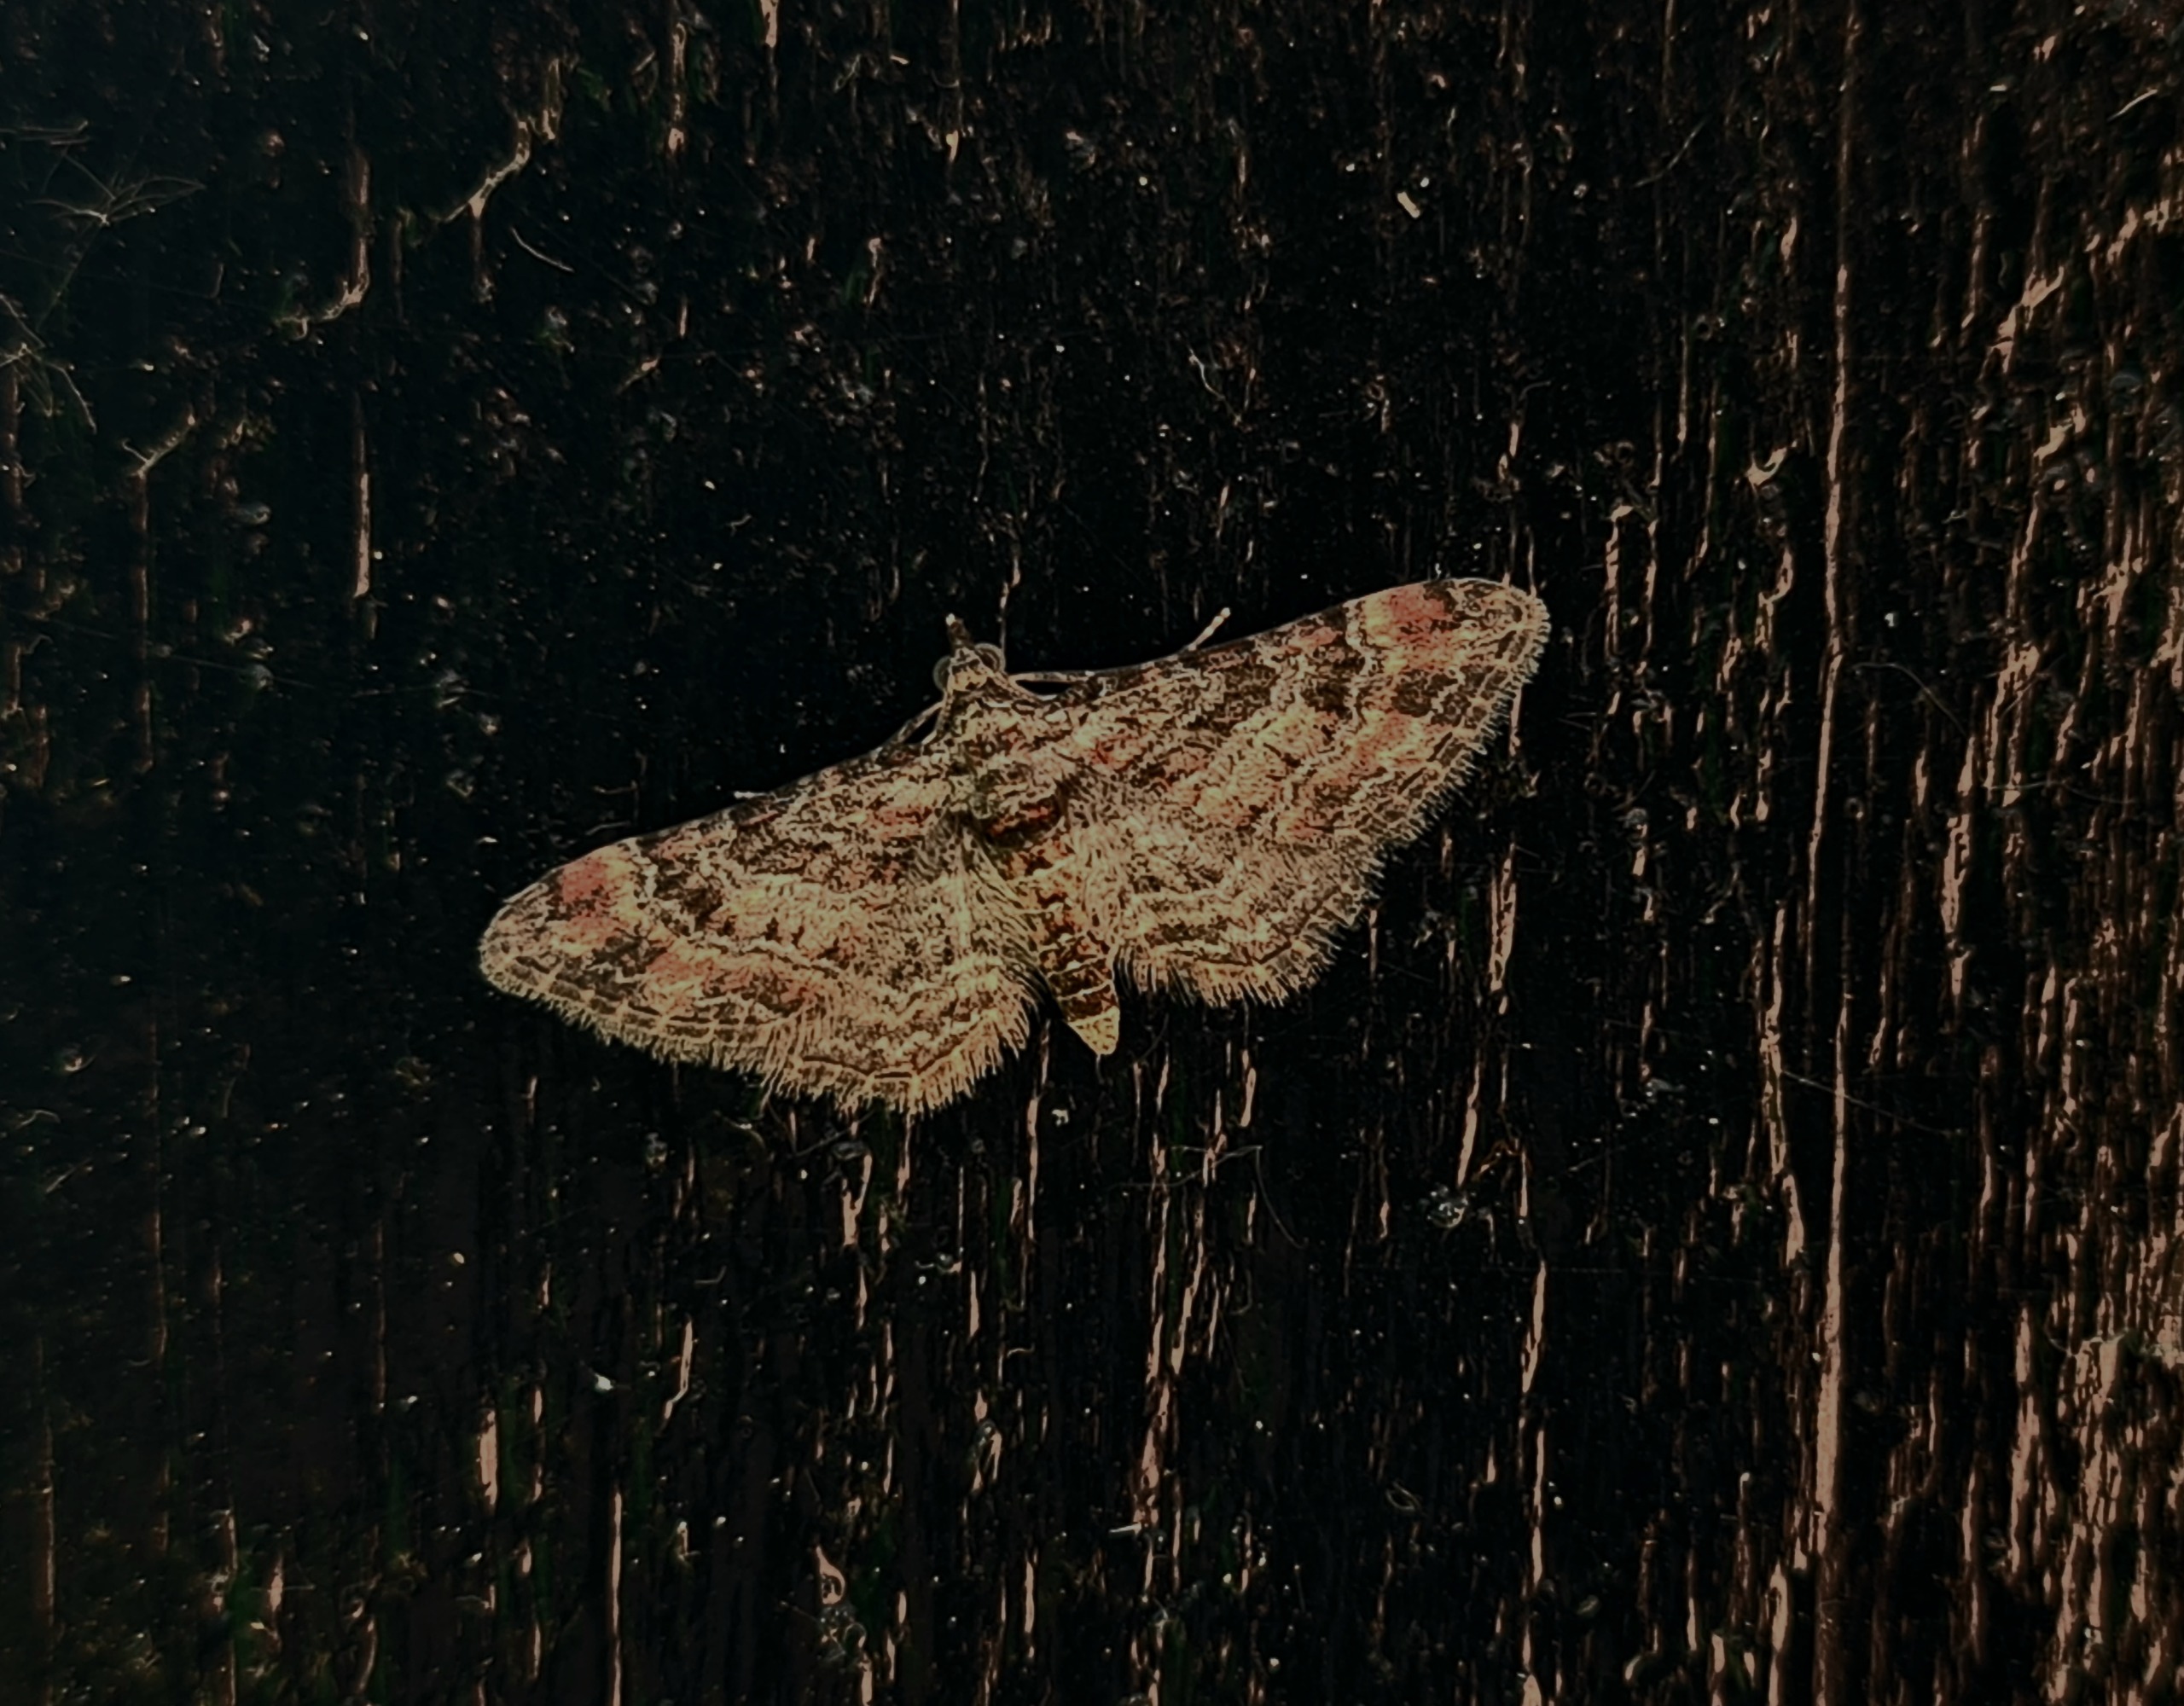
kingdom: Animalia
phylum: Arthropoda
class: Insecta
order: Lepidoptera
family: Geometridae
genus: Gymnoscelis
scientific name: Gymnoscelis rufifasciata
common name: Rødbåndet dværgmåler
